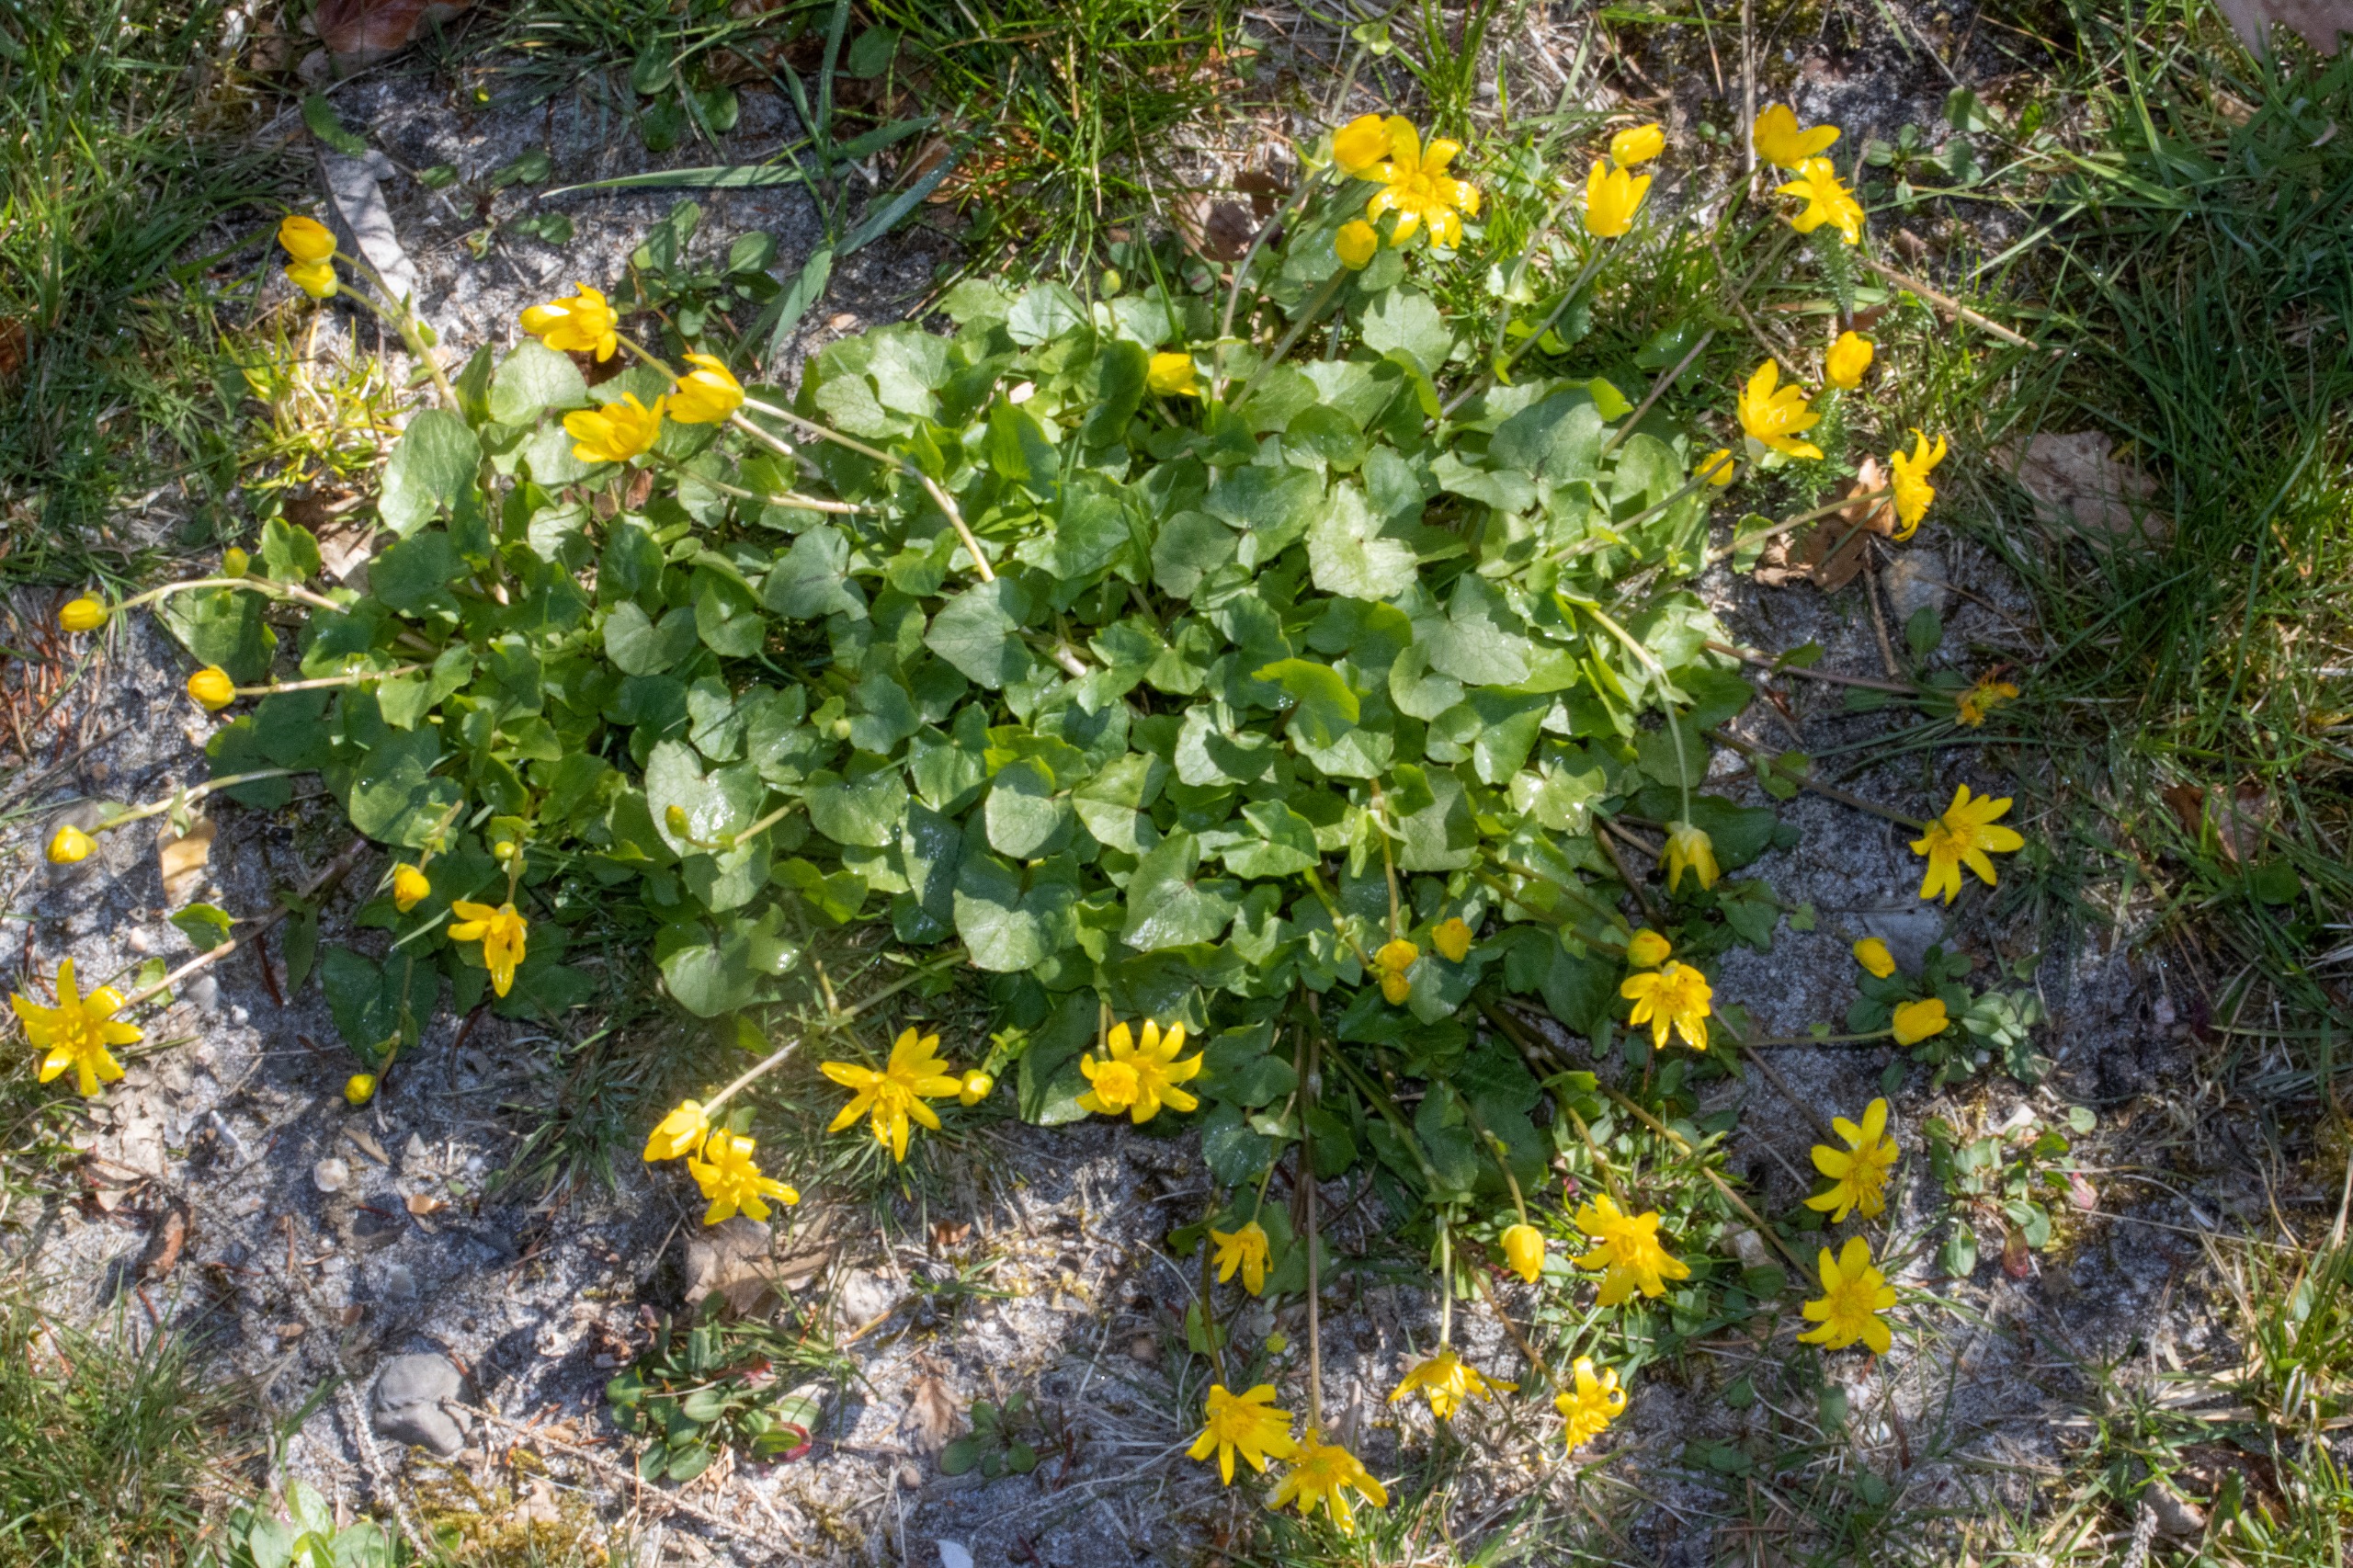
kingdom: Plantae
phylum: Tracheophyta
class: Magnoliopsida
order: Ranunculales
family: Ranunculaceae
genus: Ficaria
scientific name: Ficaria verna
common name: Vorterod
